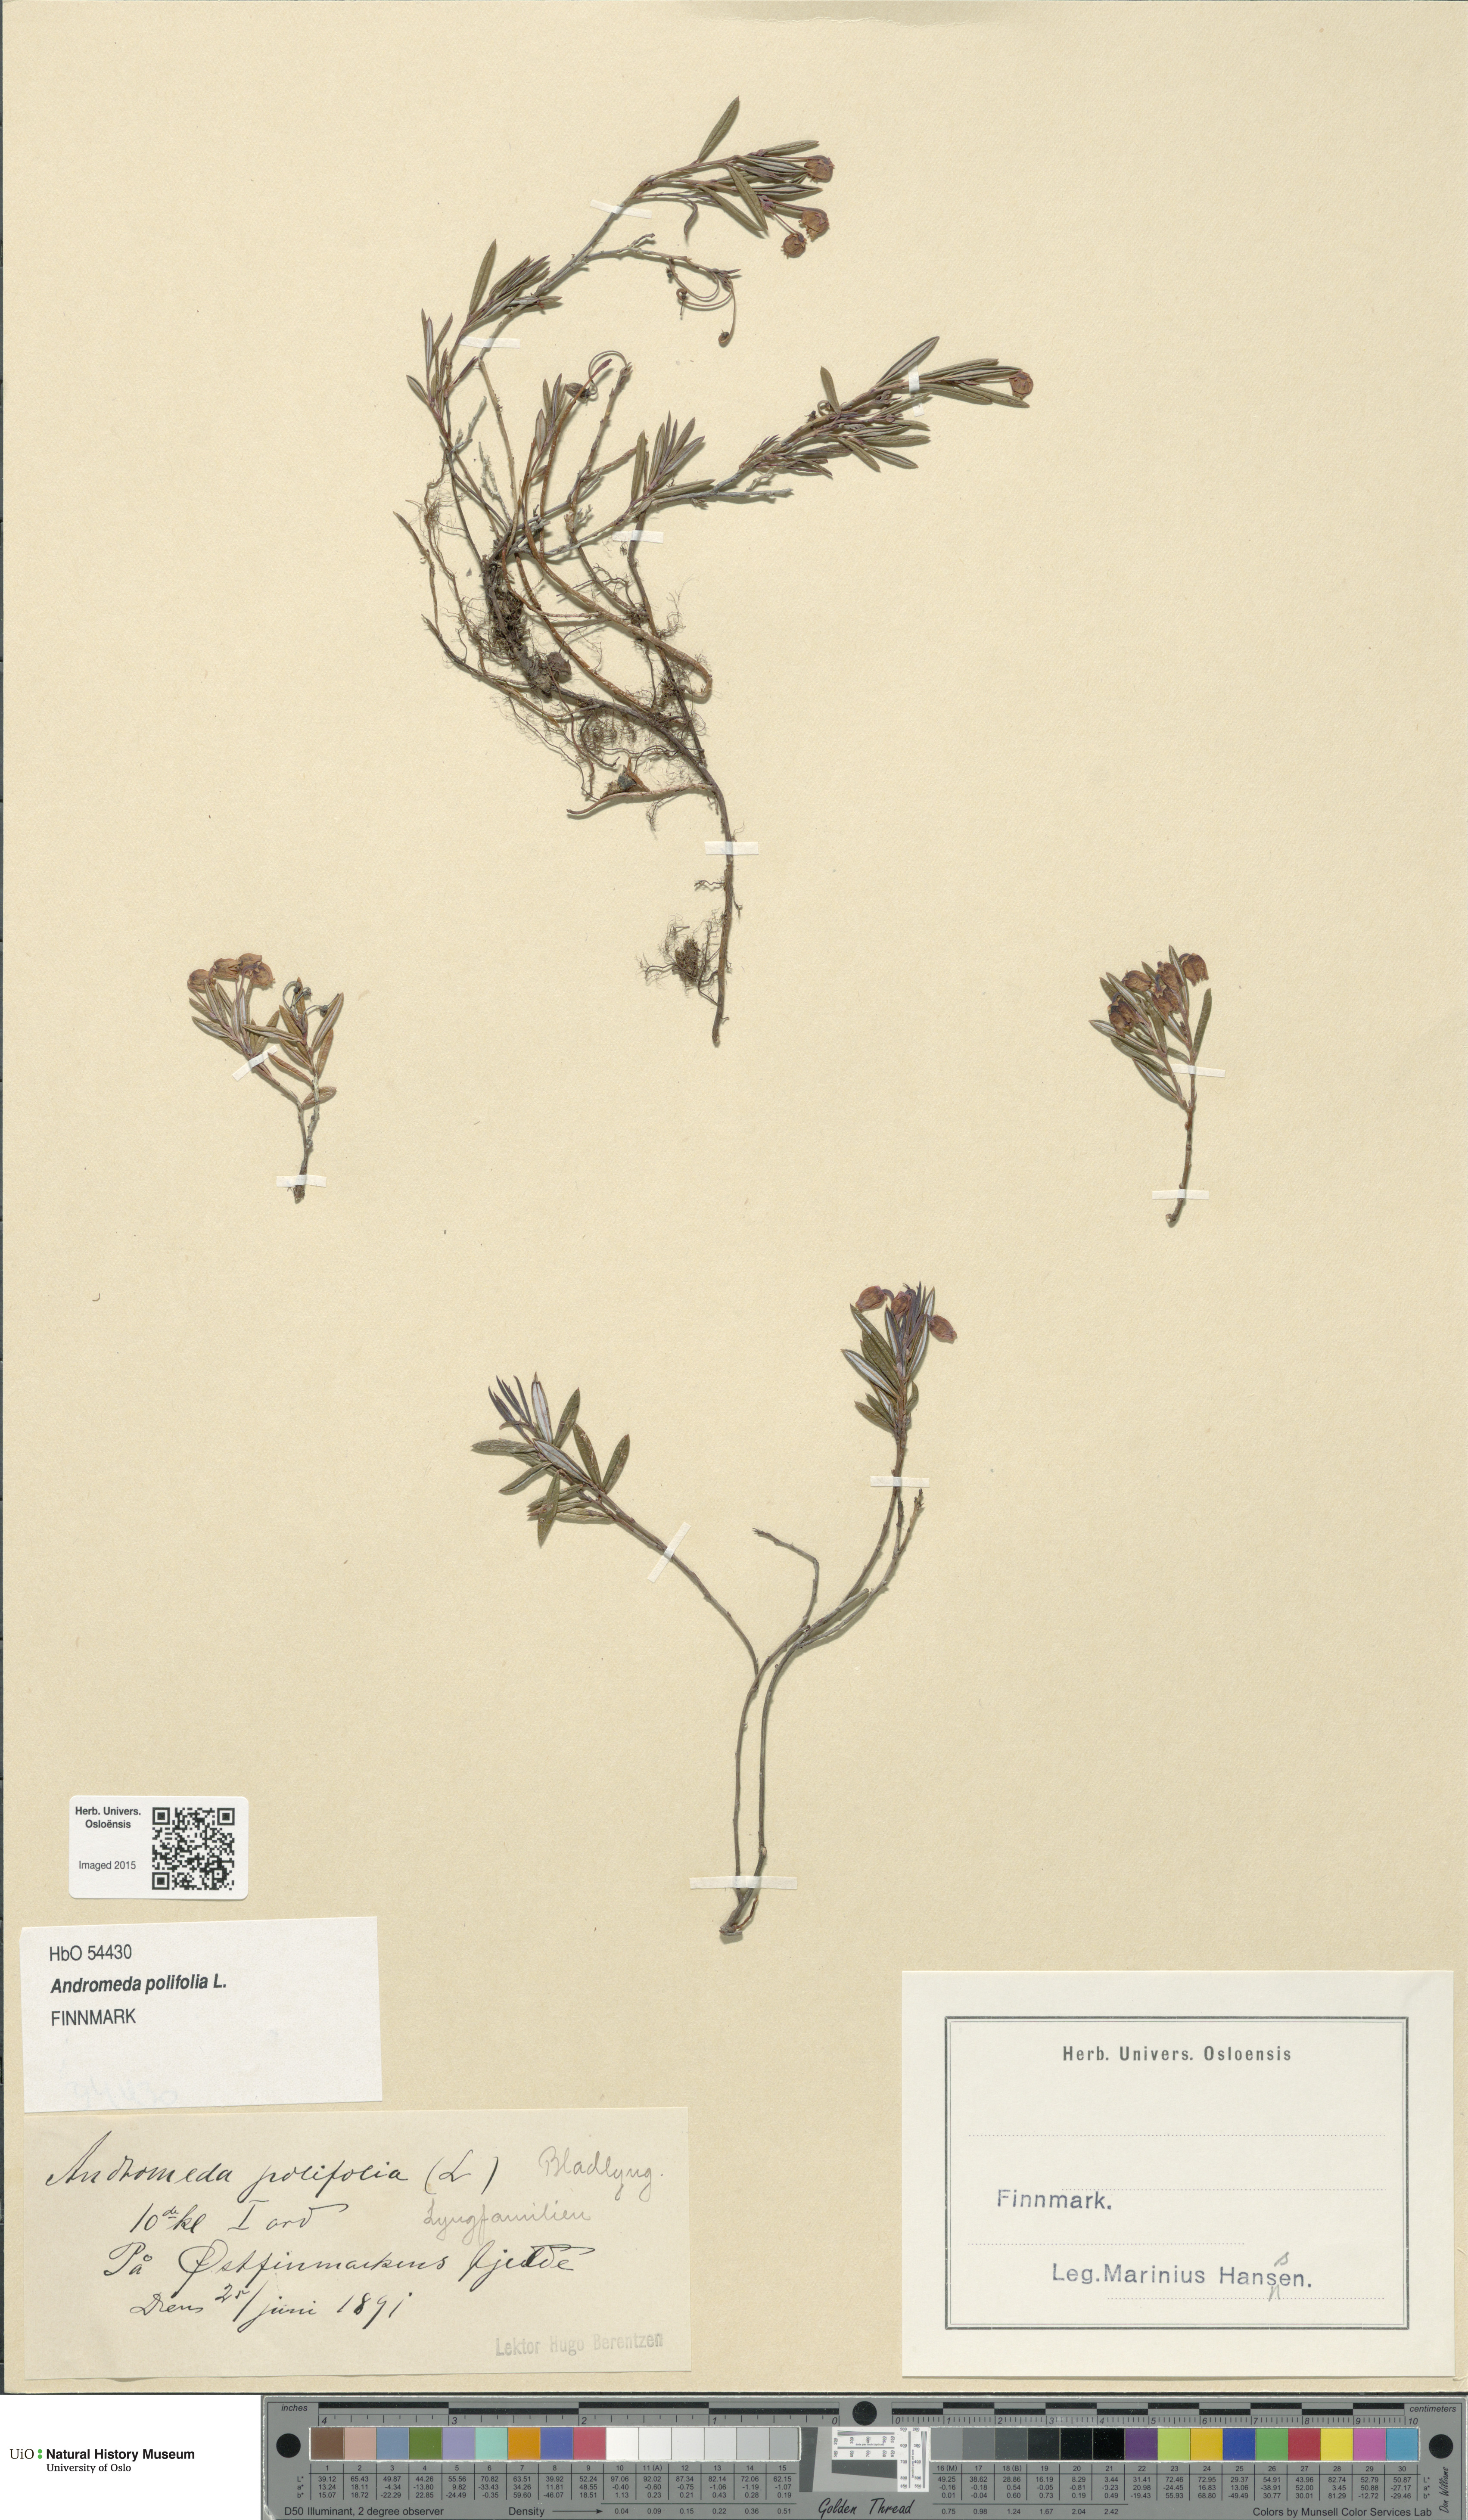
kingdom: Plantae
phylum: Tracheophyta
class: Magnoliopsida
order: Ericales
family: Ericaceae
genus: Andromeda
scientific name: Andromeda polifolia
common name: Bog-rosemary
